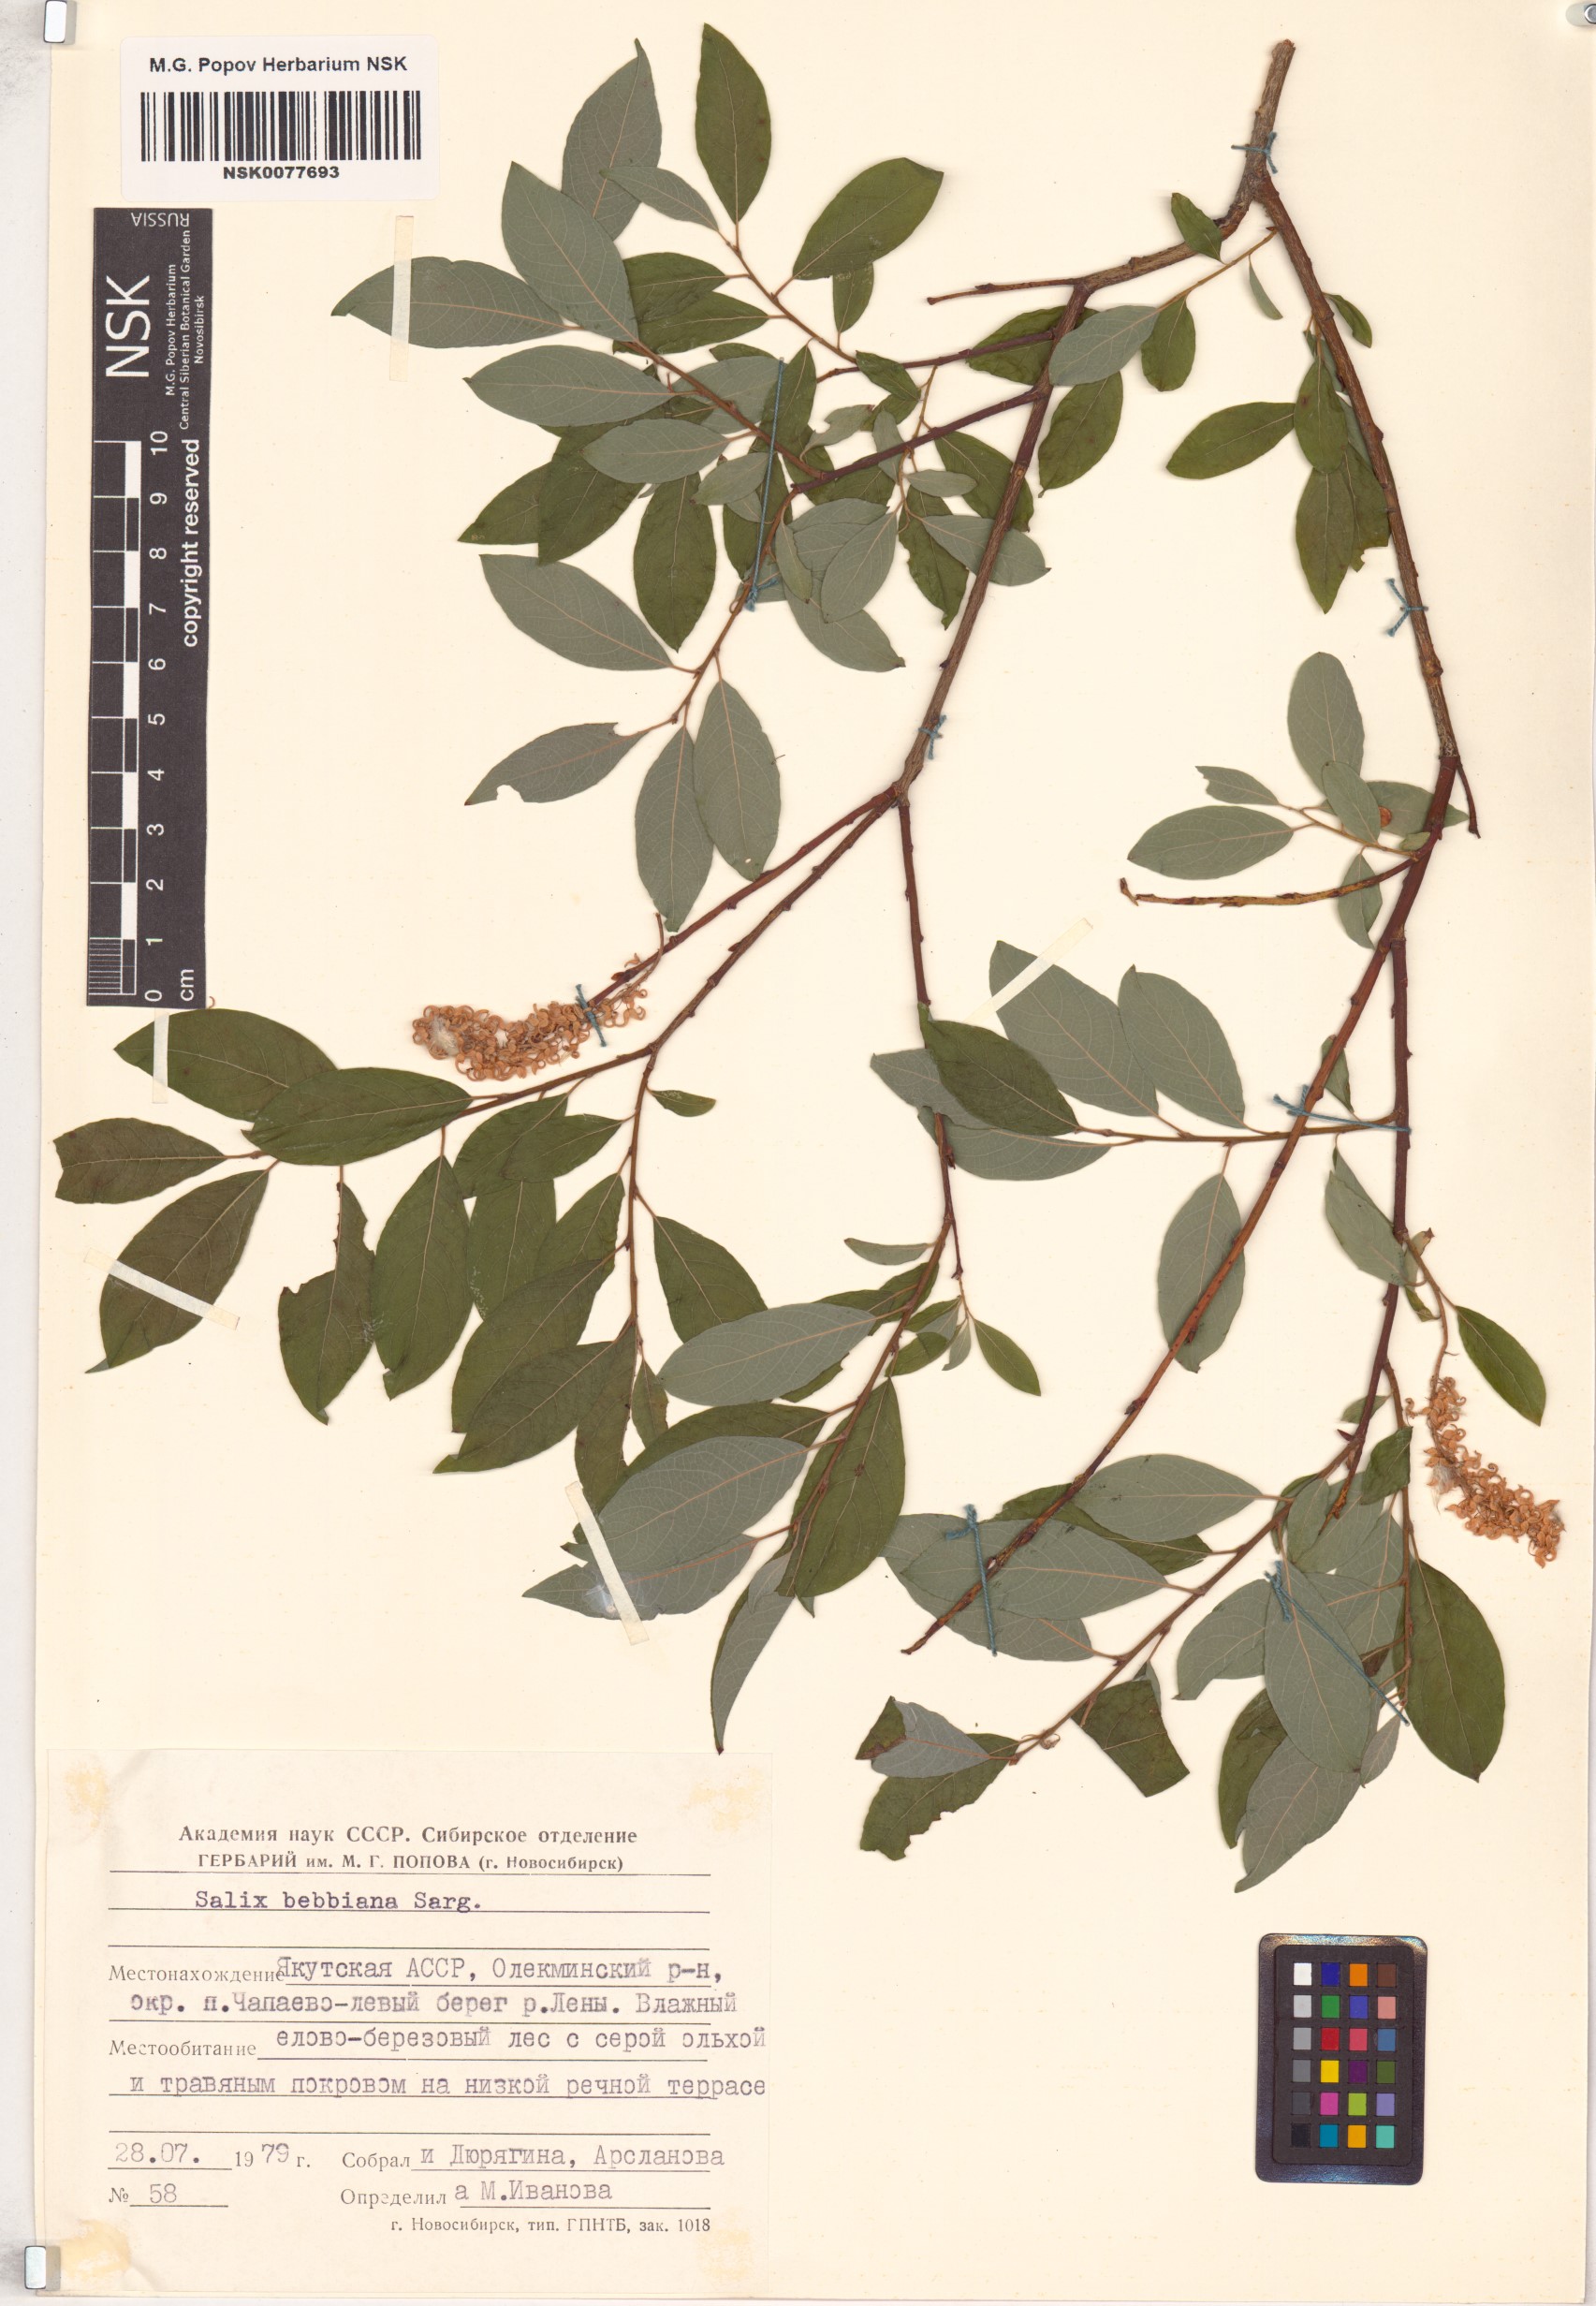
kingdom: Plantae
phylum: Tracheophyta
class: Magnoliopsida
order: Malpighiales
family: Salicaceae
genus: Salix
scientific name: Salix bebbiana
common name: Bebb's willow
